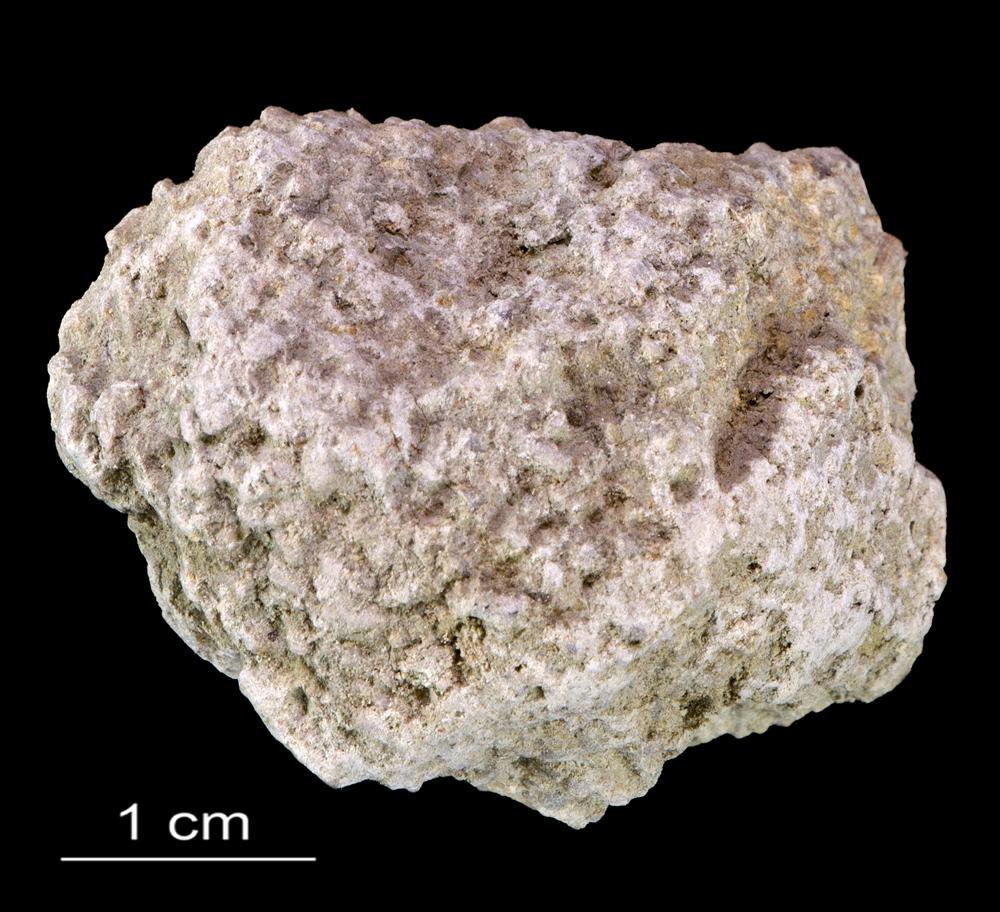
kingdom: Animalia
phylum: Annelida
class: Polychaeta
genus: Volborthella
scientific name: Volborthella tenuis
